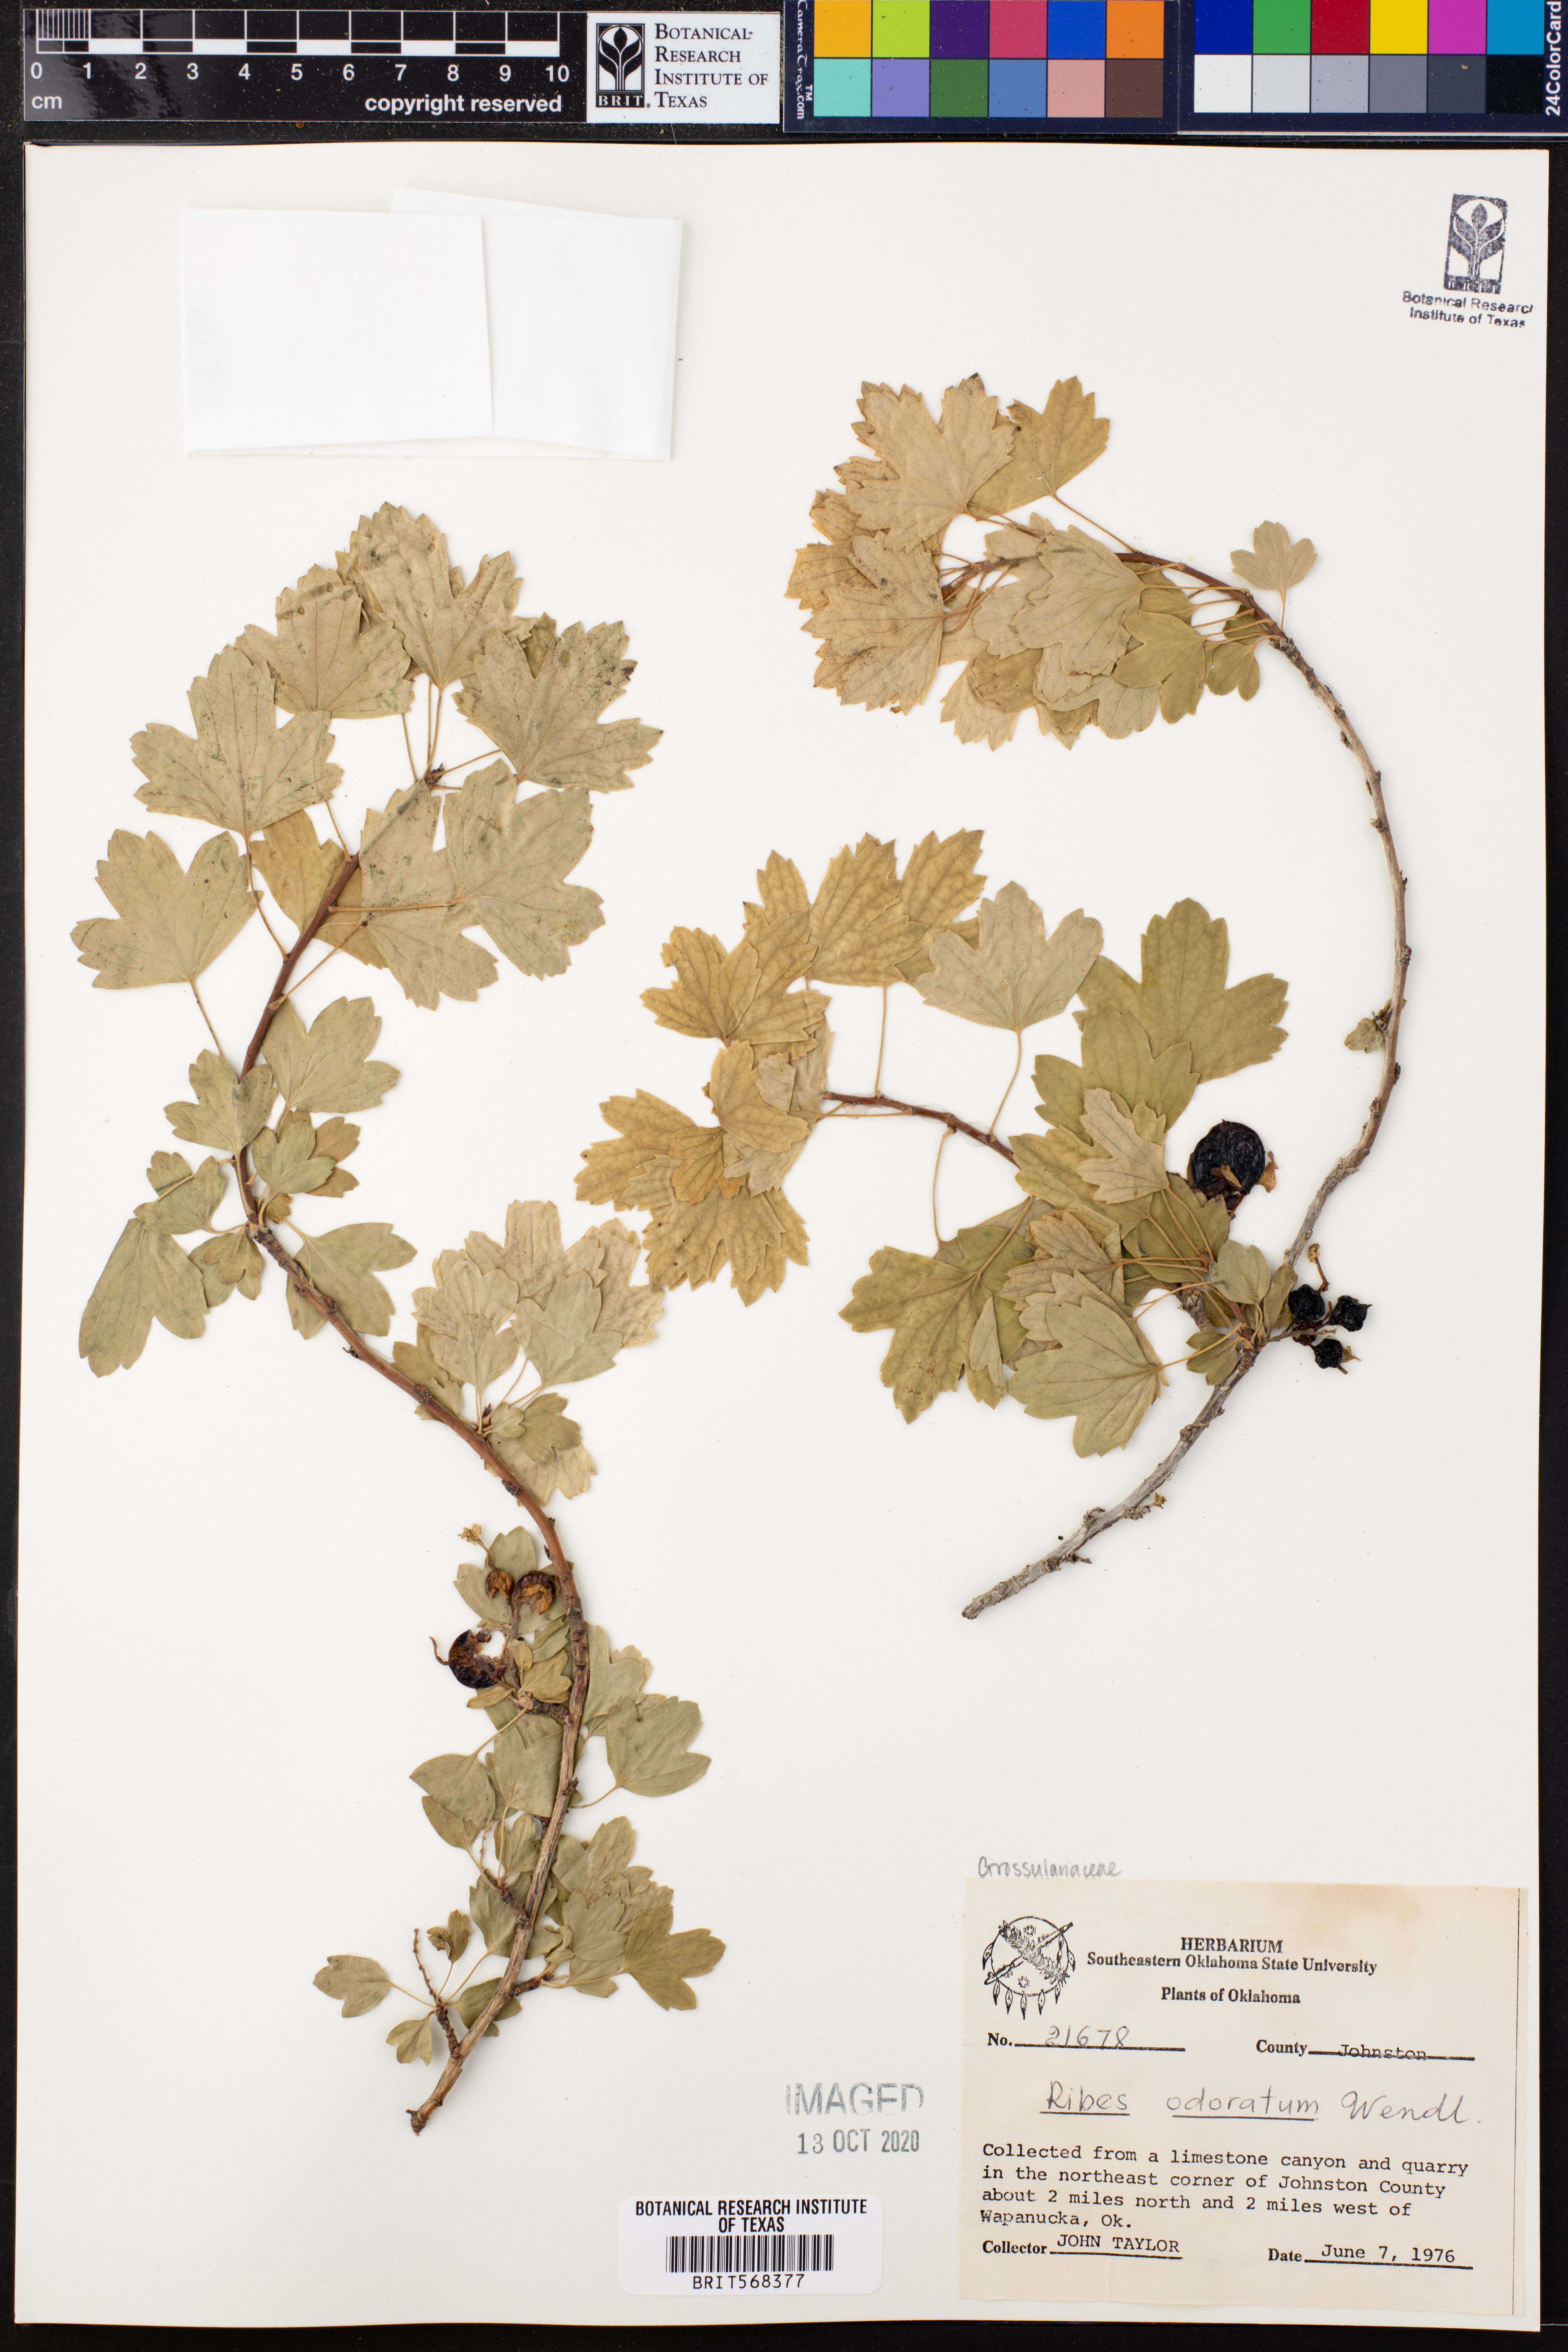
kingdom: Plantae
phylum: Tracheophyta
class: Magnoliopsida
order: Saxifragales
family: Grossulariaceae
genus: Ribes
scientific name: Ribes aureum
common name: Golden currant
